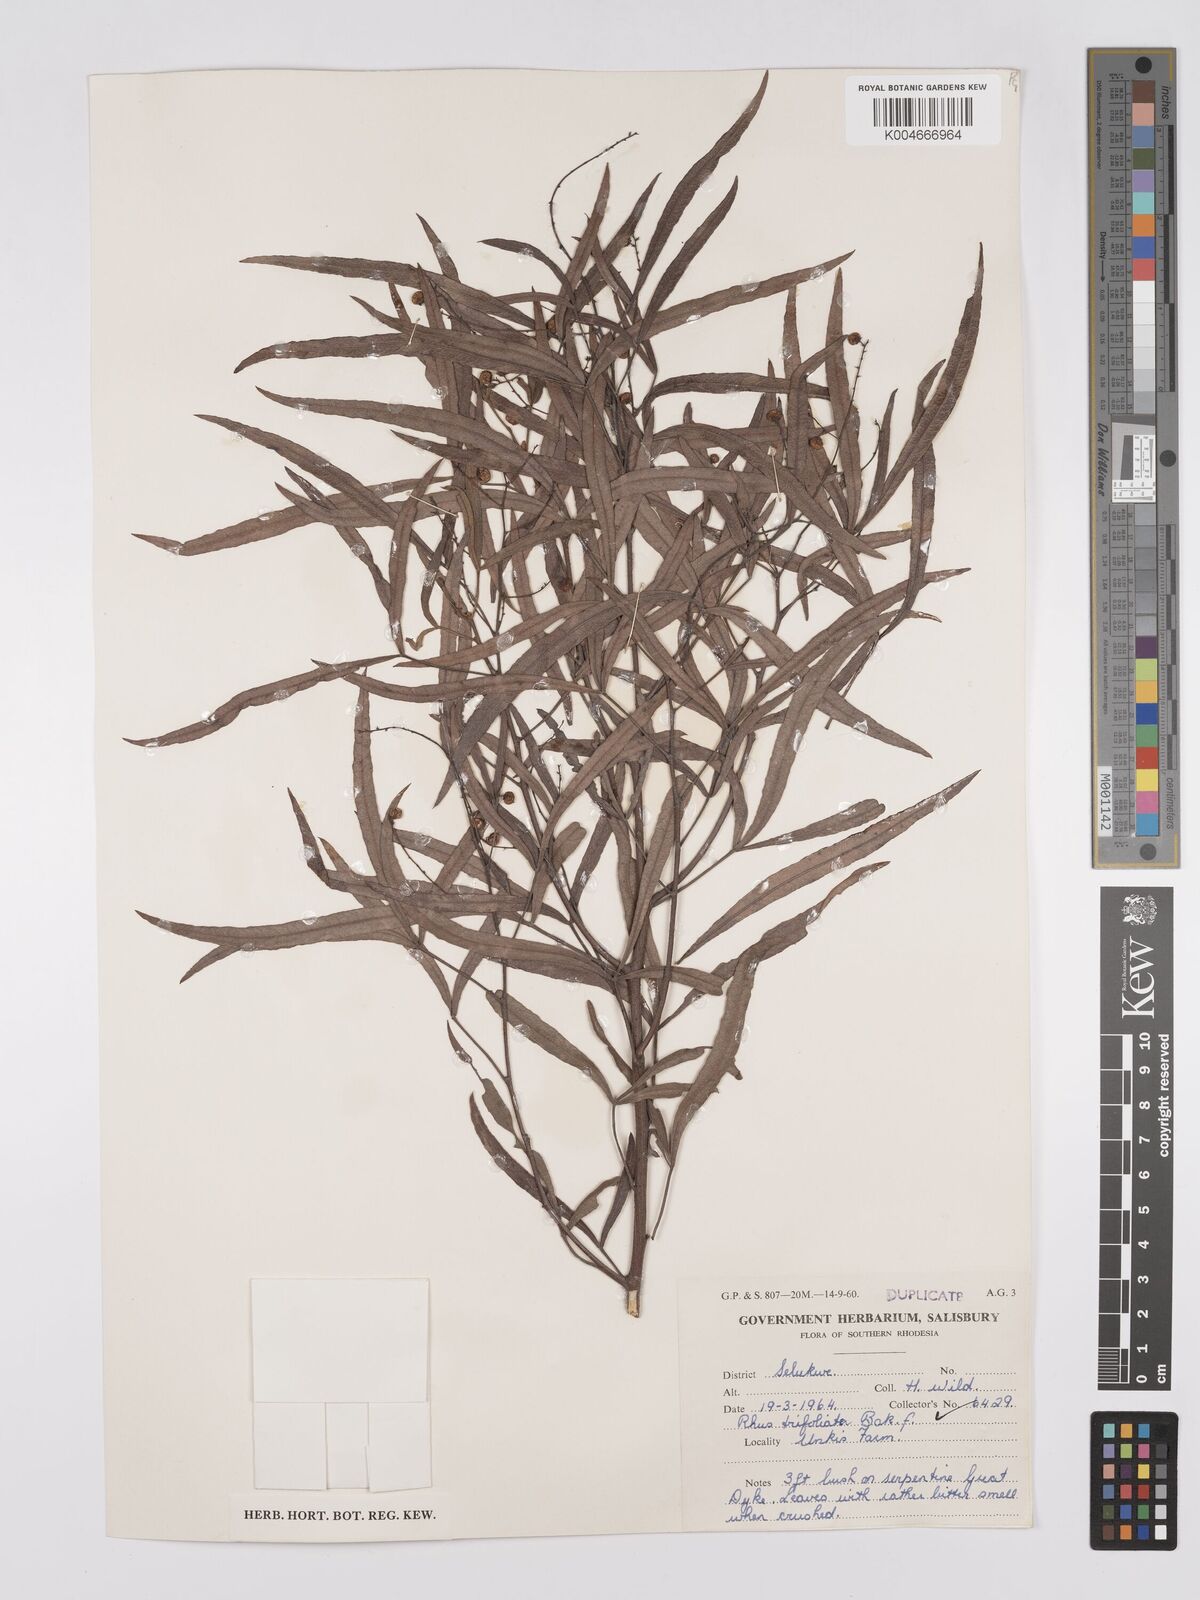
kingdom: Plantae
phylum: Tracheophyta
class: Magnoliopsida
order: Sapindales
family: Anacardiaceae
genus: Searsia
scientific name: Searsia magalismontana
